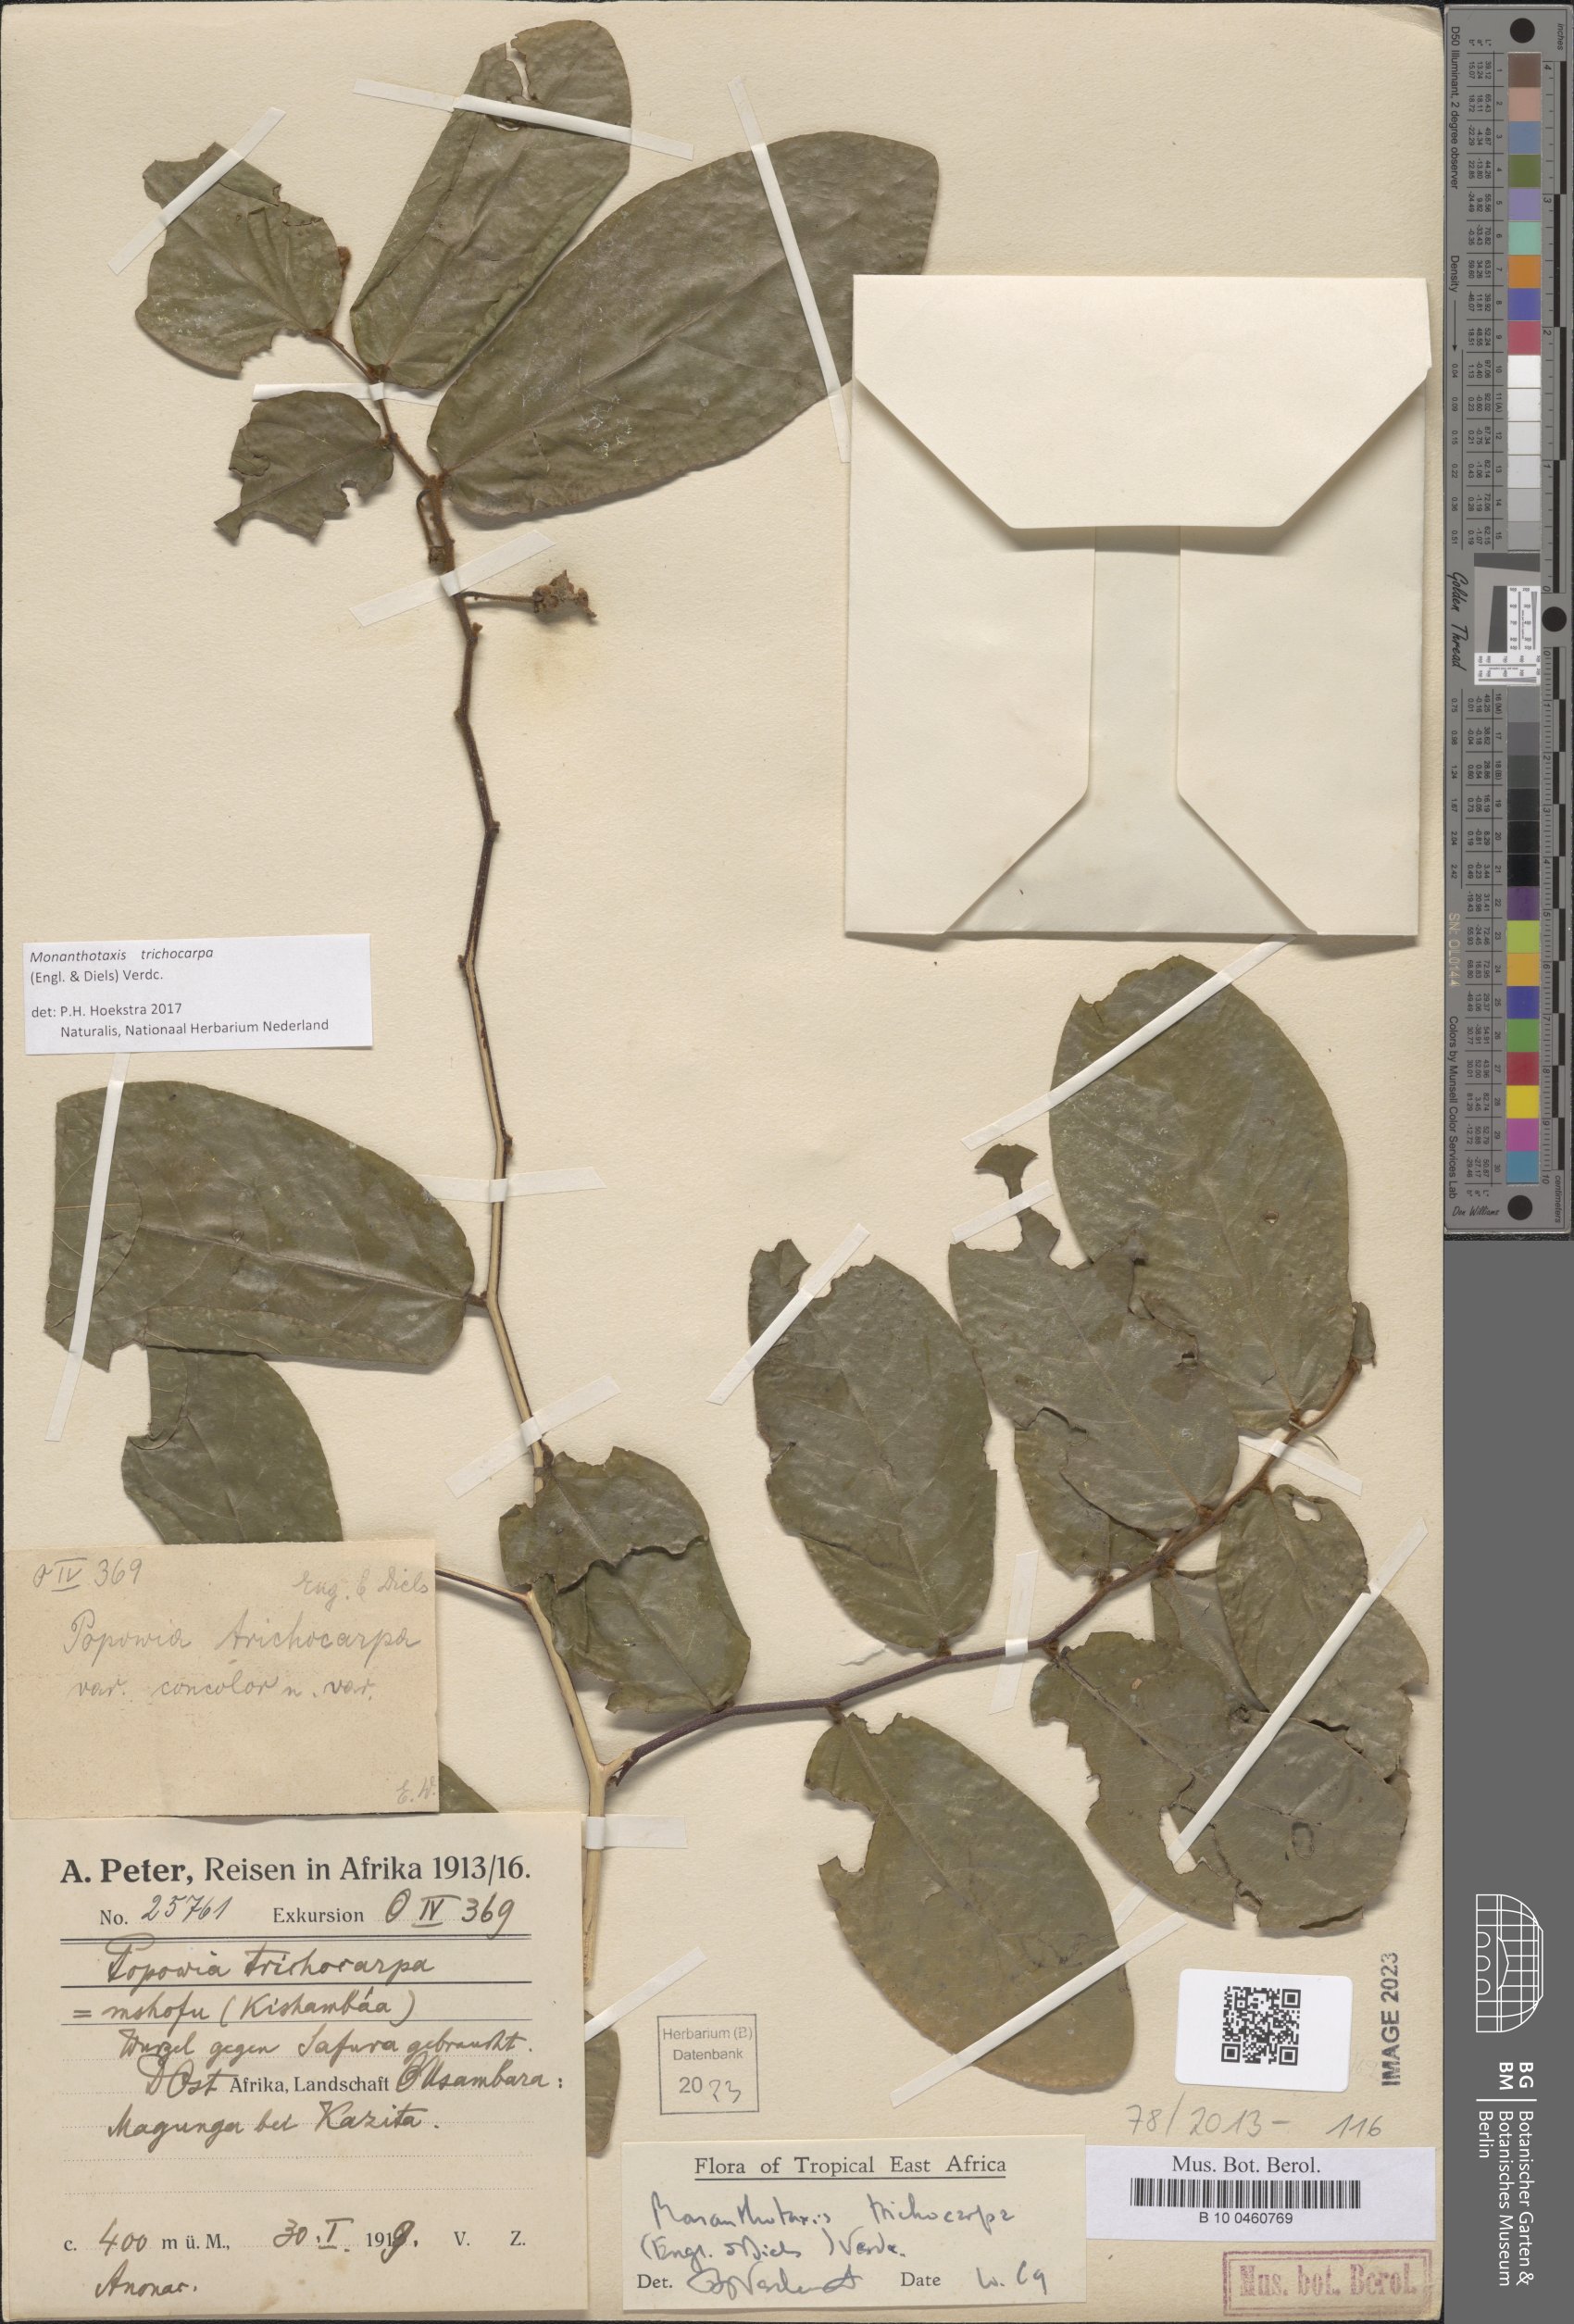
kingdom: Plantae
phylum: Tracheophyta
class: Magnoliopsida
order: Magnoliales
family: Annonaceae
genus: Monanthotaxis
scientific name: Monanthotaxis trichocarpa
